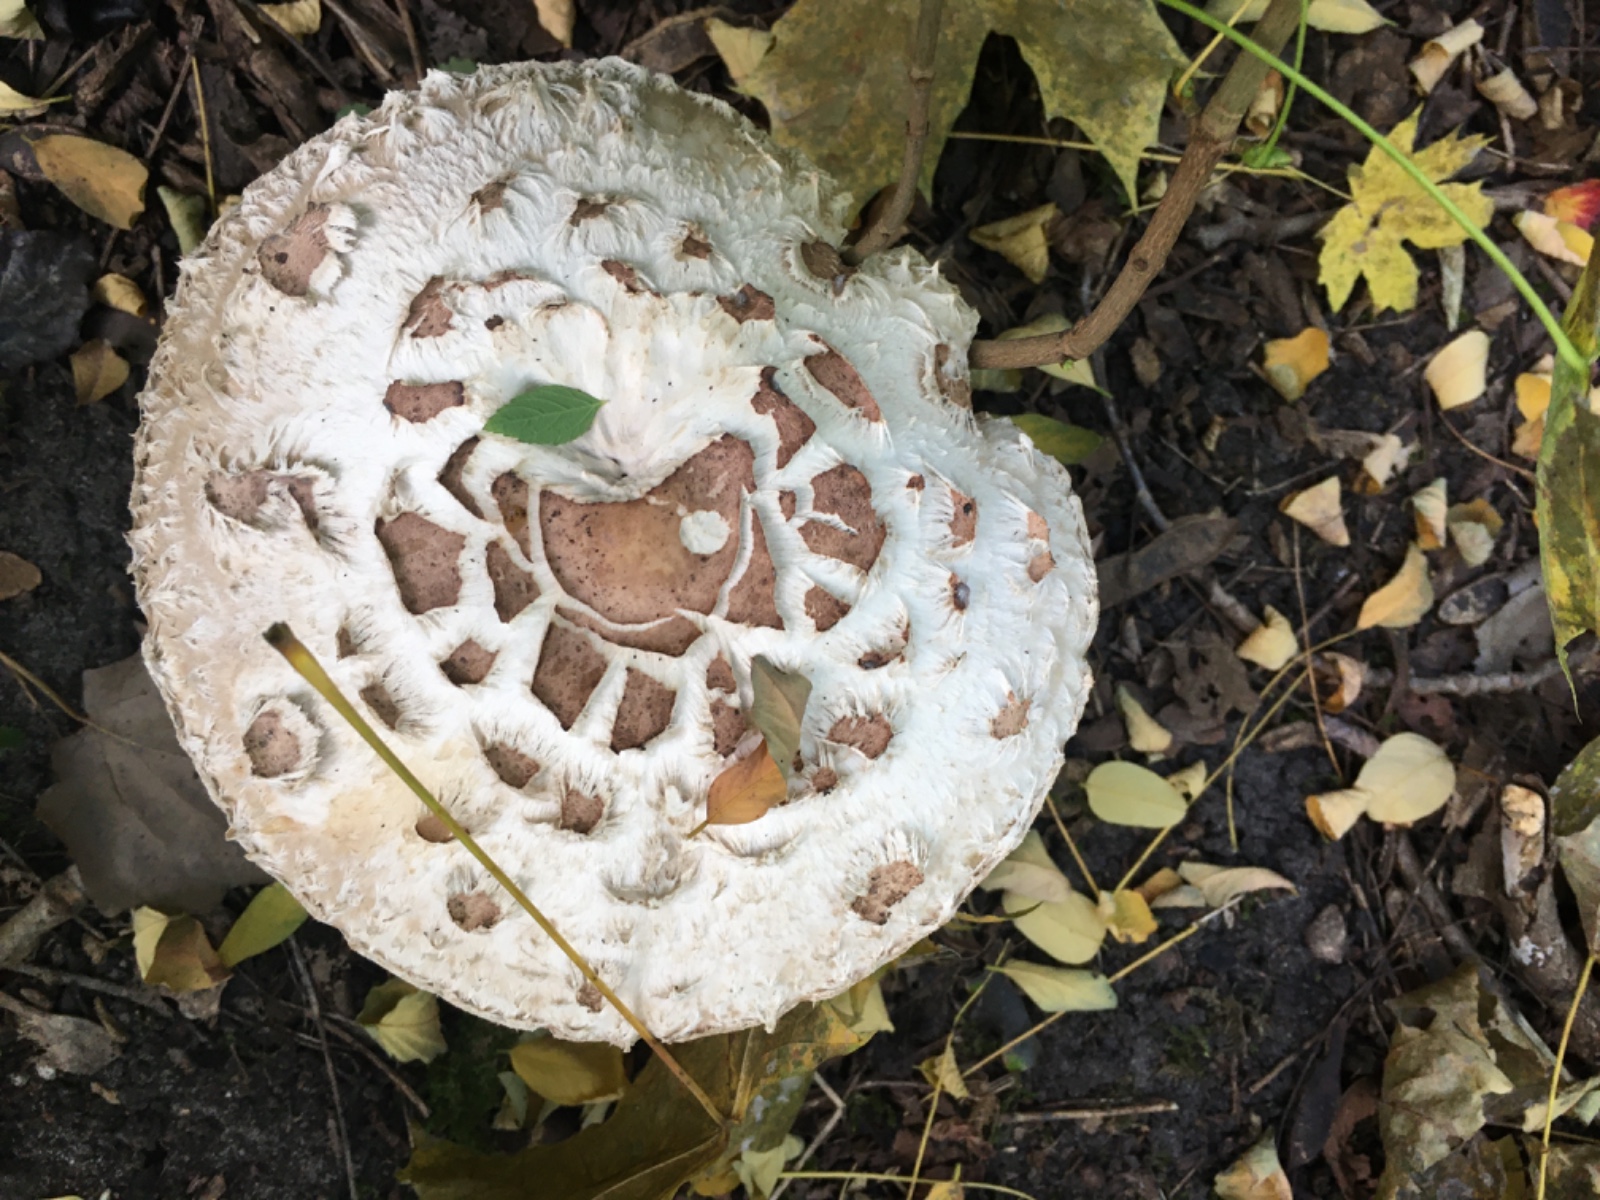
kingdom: Fungi
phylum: Basidiomycota
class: Agaricomycetes
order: Agaricales
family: Agaricaceae
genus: Chlorophyllum
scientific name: Chlorophyllum
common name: rabarberhat
